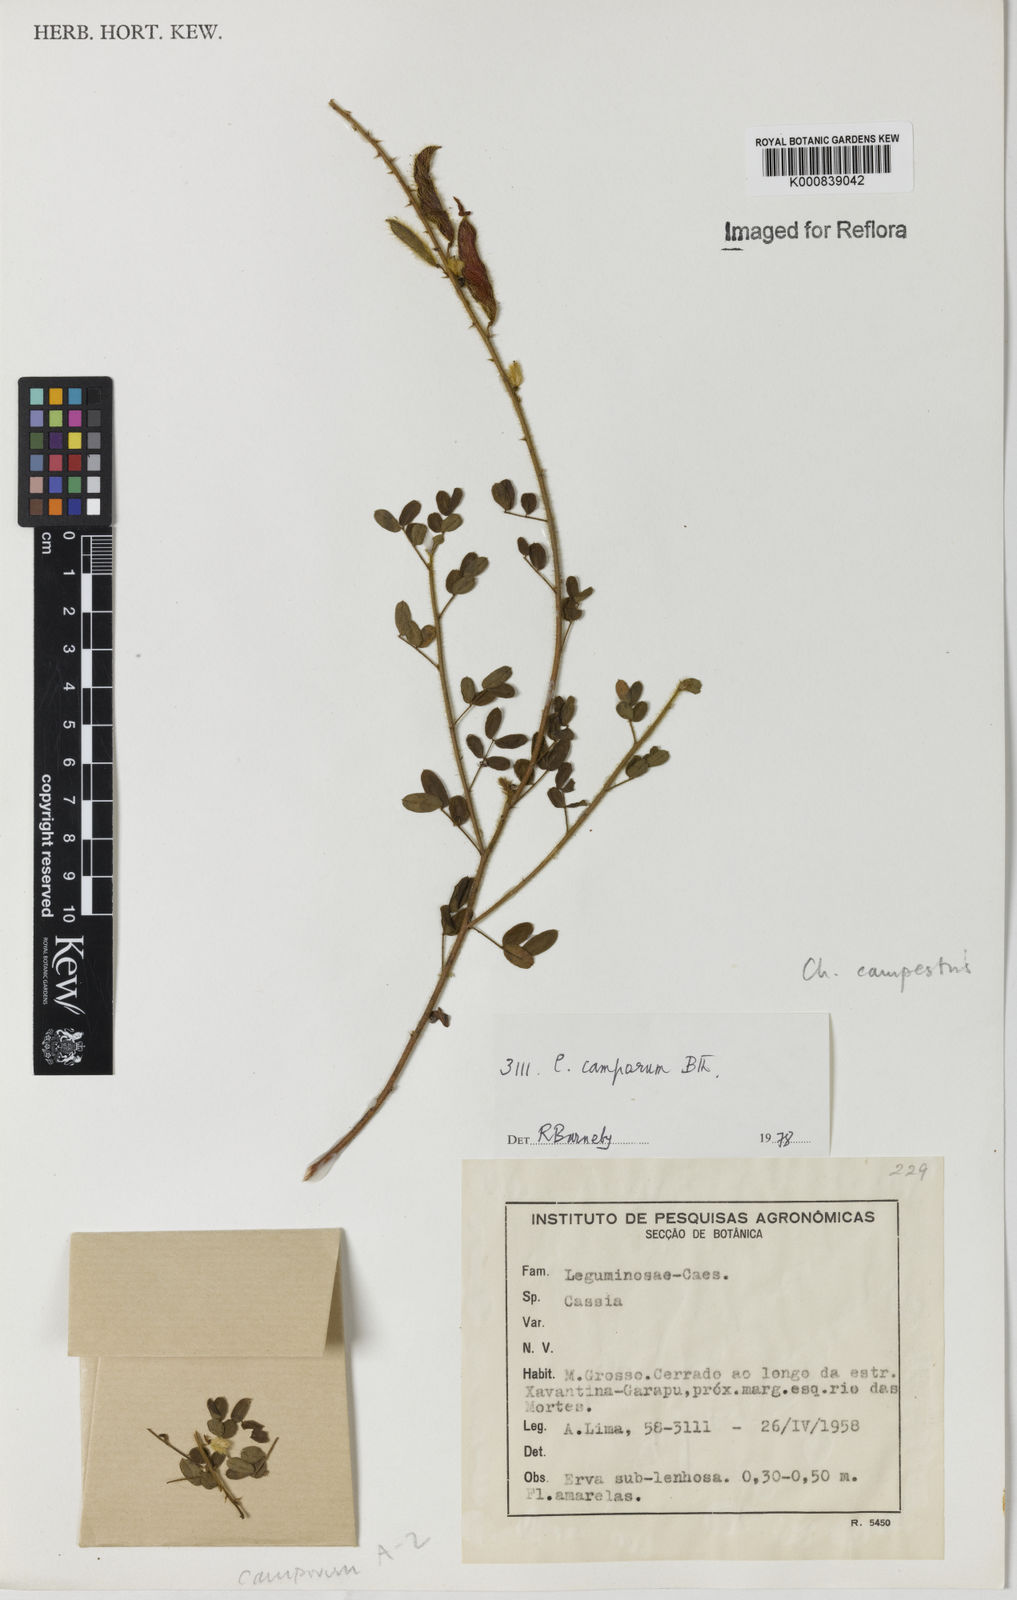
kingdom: Plantae
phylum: Tracheophyta
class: Magnoliopsida
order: Fabales
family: Fabaceae
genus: Chamaecrista
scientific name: Chamaecrista campestris
